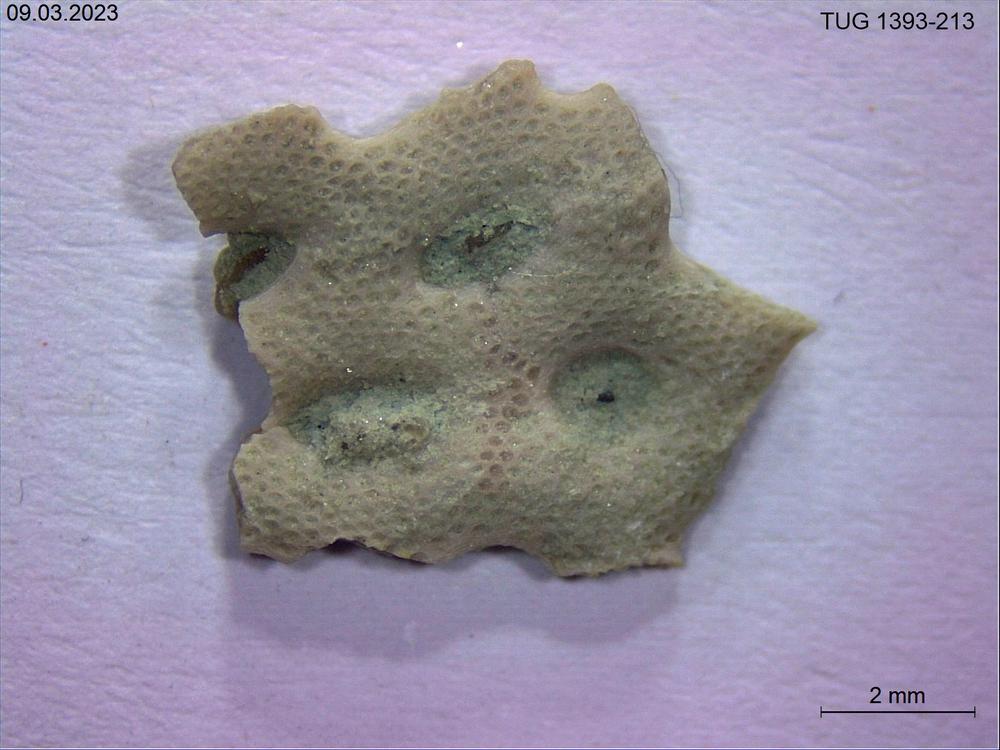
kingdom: Animalia
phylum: Bryozoa
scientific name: Bryozoa
